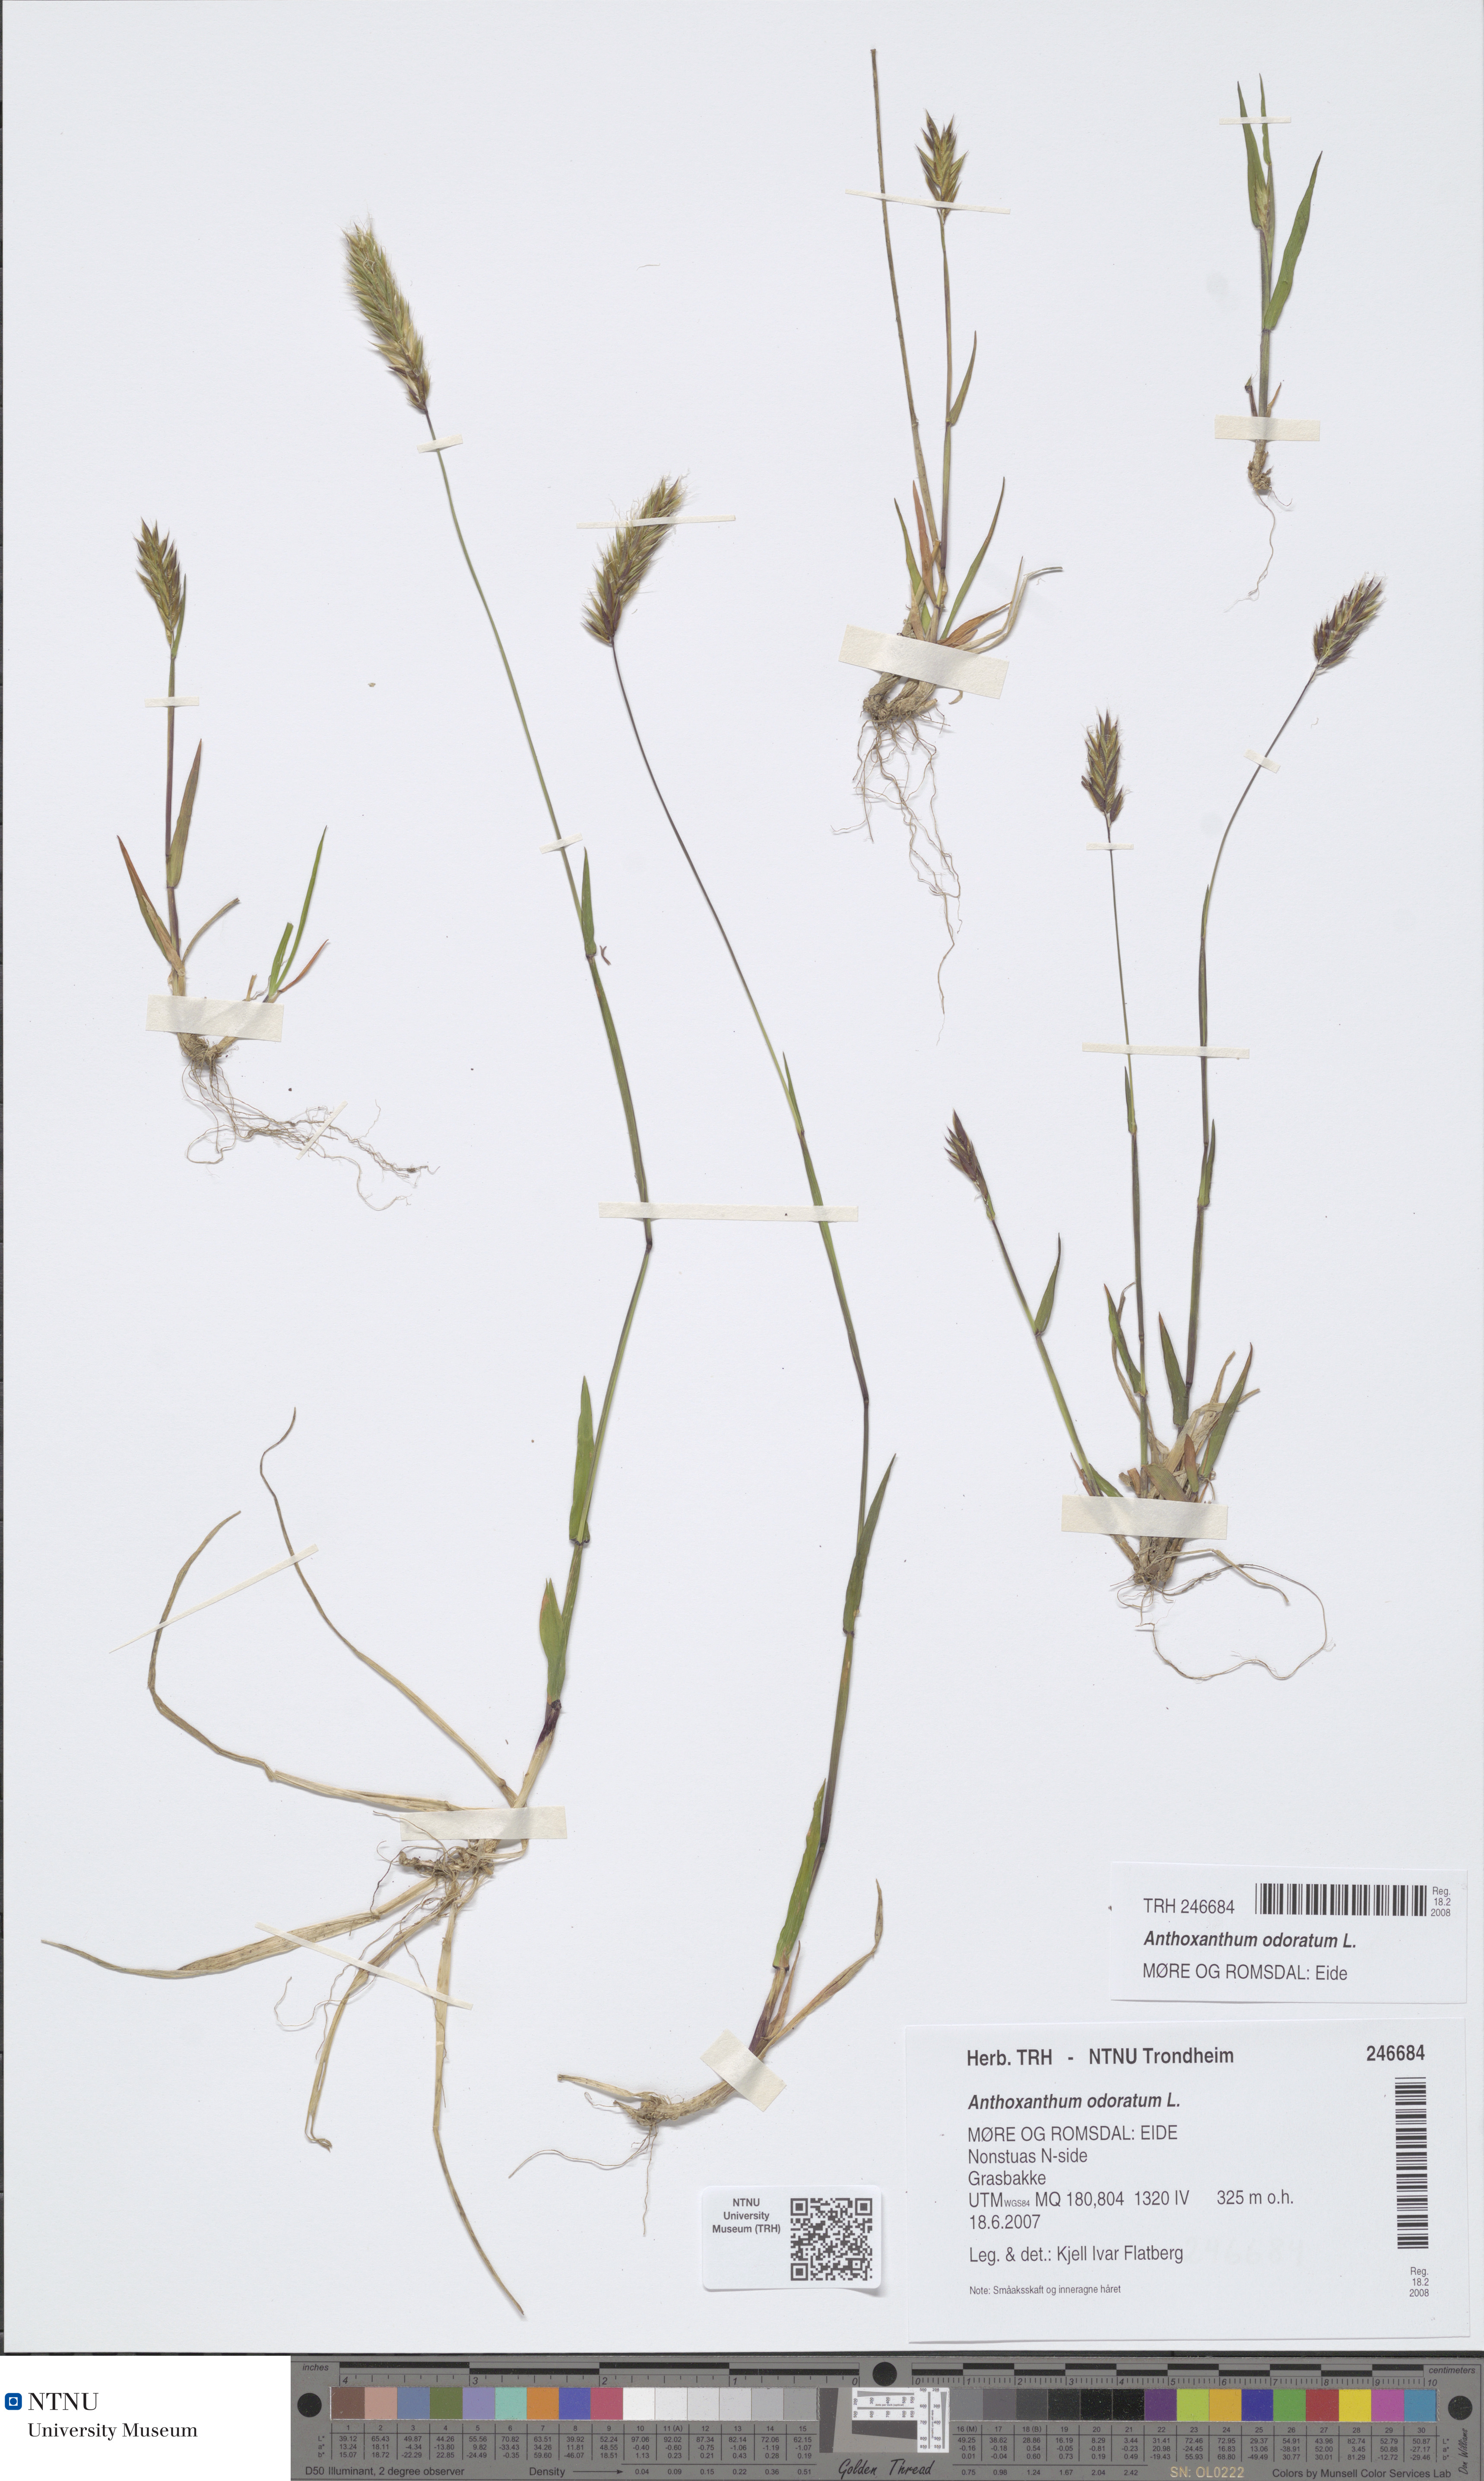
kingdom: Plantae
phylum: Tracheophyta
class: Liliopsida
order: Poales
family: Poaceae
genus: Anthoxanthum
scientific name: Anthoxanthum odoratum
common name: Sweet vernalgrass
